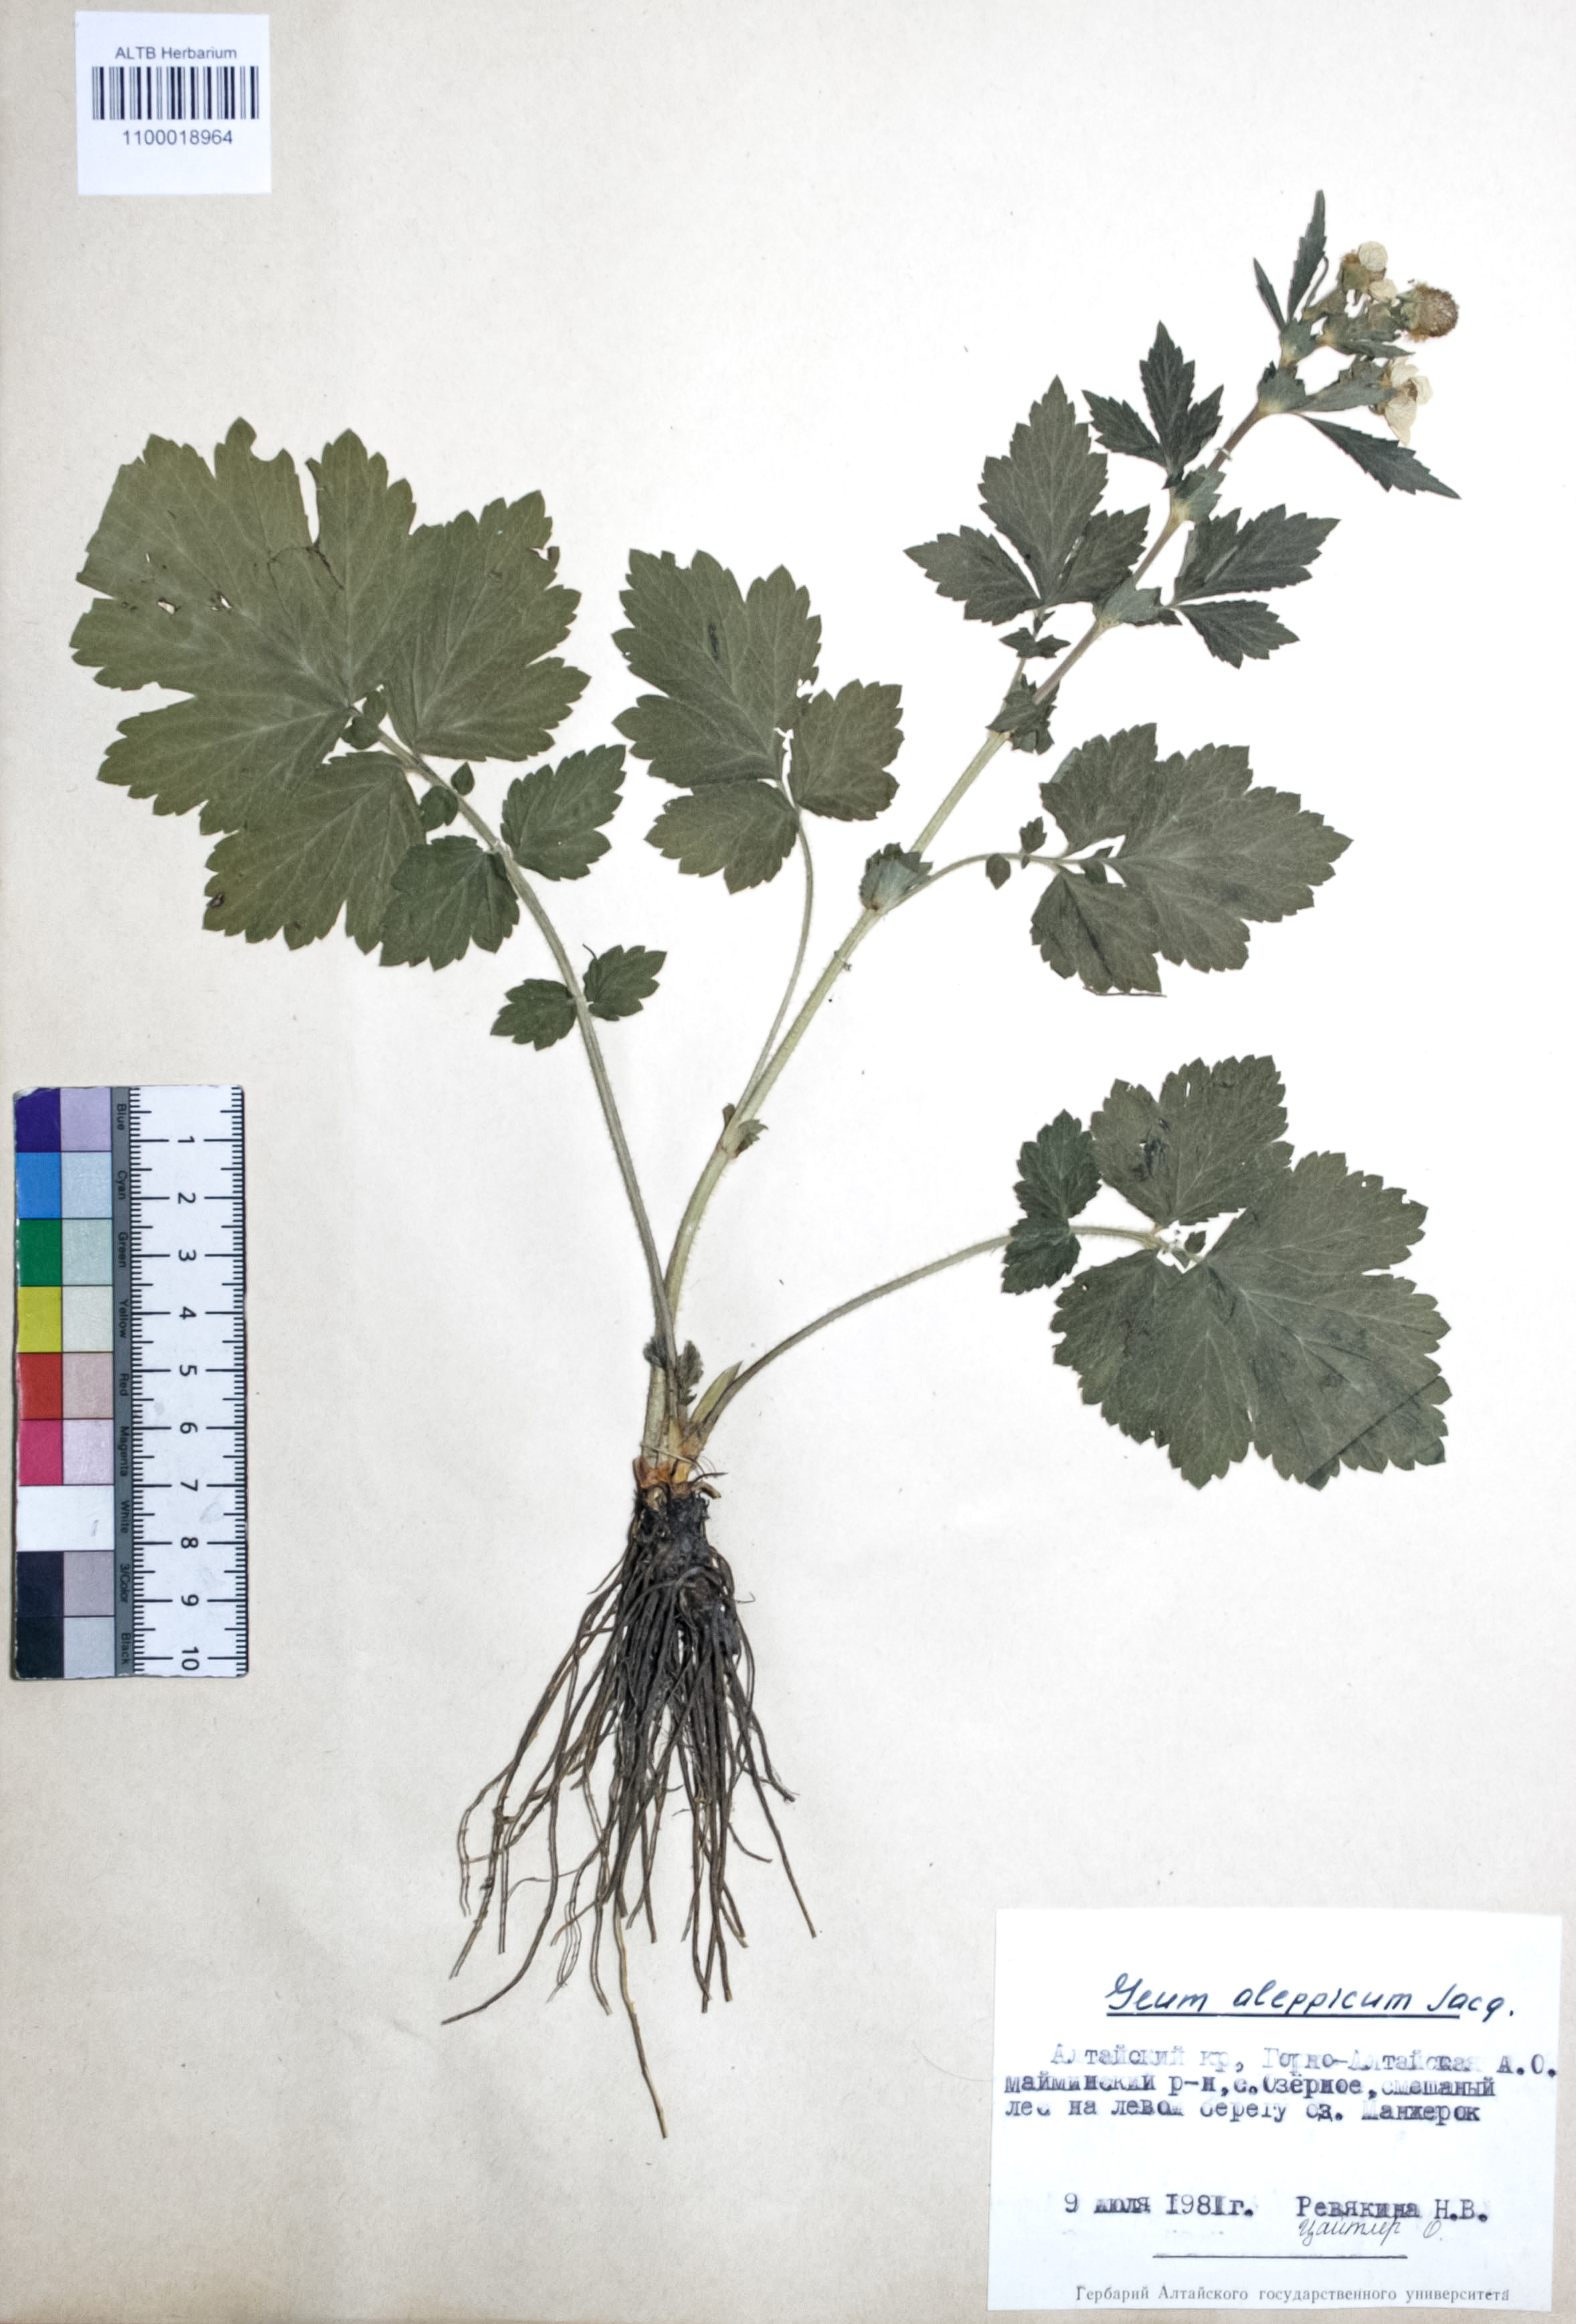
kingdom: Plantae
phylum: Tracheophyta
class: Magnoliopsida
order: Rosales
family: Rosaceae
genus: Geum
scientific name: Geum aleppicum
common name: Yellow avens
